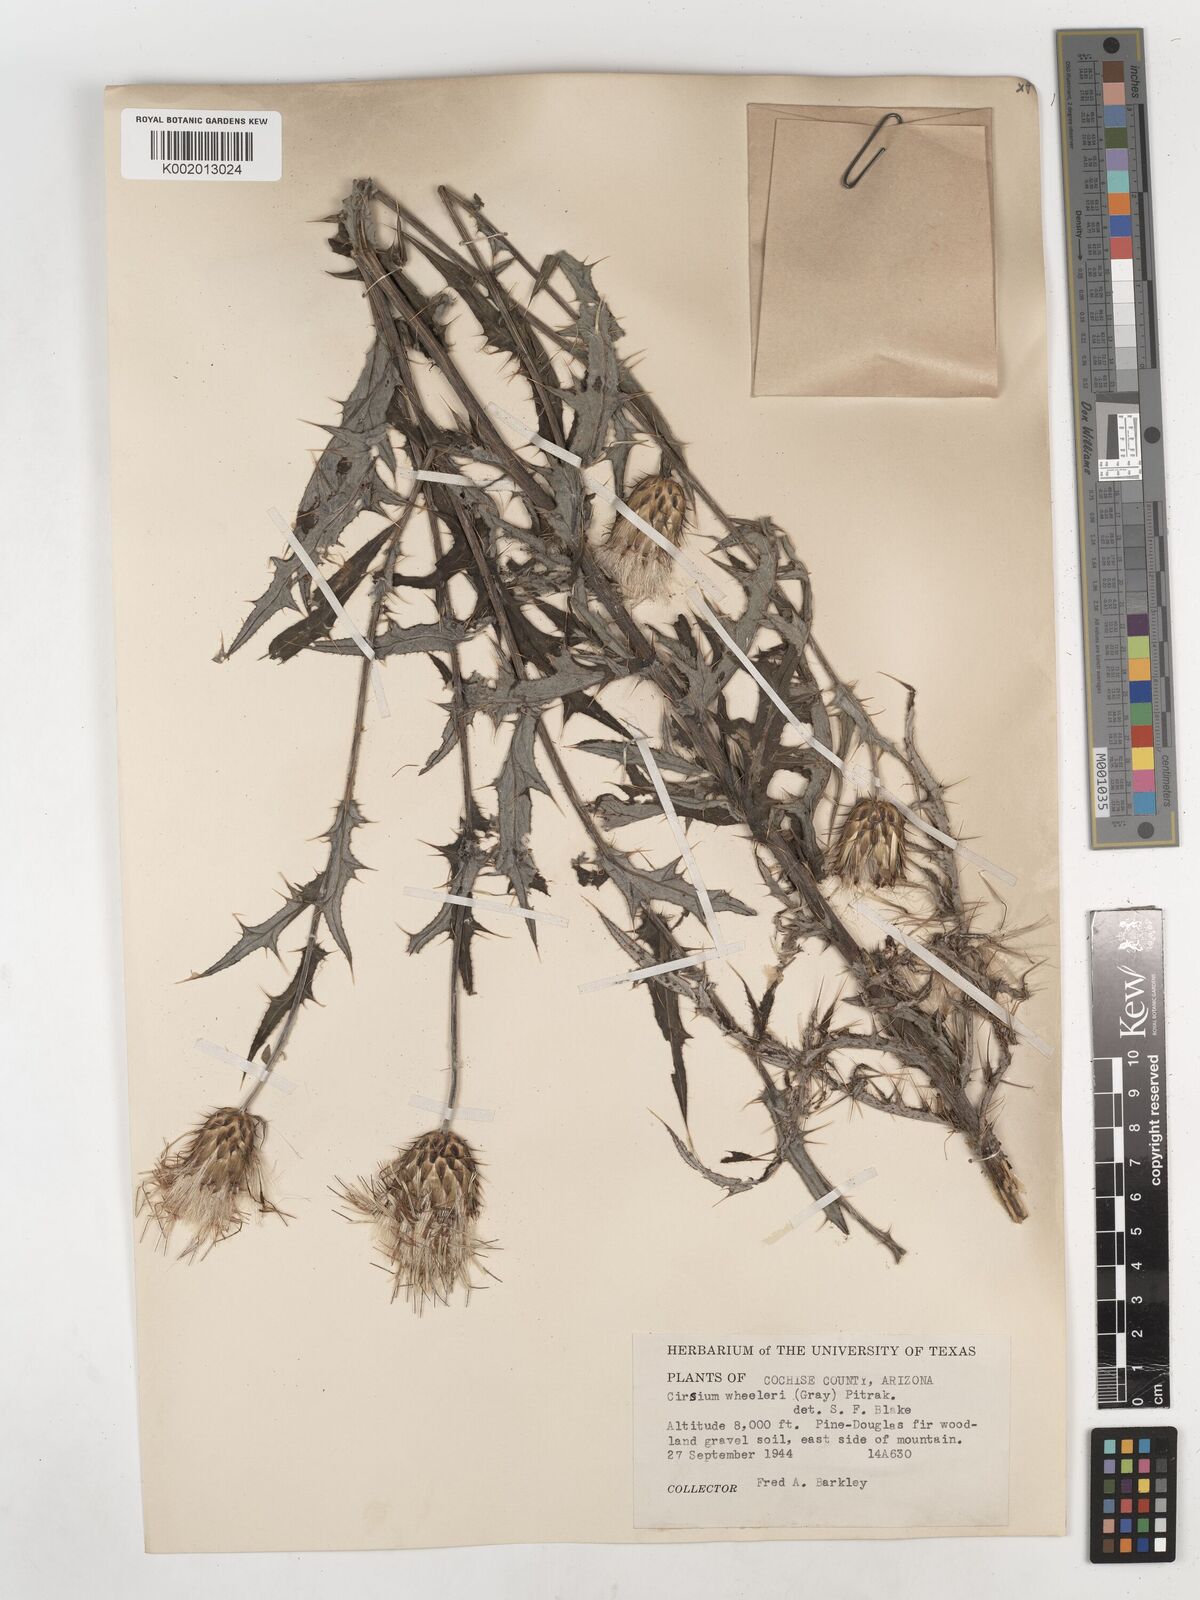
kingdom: Plantae
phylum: Tracheophyta
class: Magnoliopsida
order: Asterales
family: Asteraceae
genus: Cirsium
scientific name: Cirsium wheeleri
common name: Wheeler's thistle
